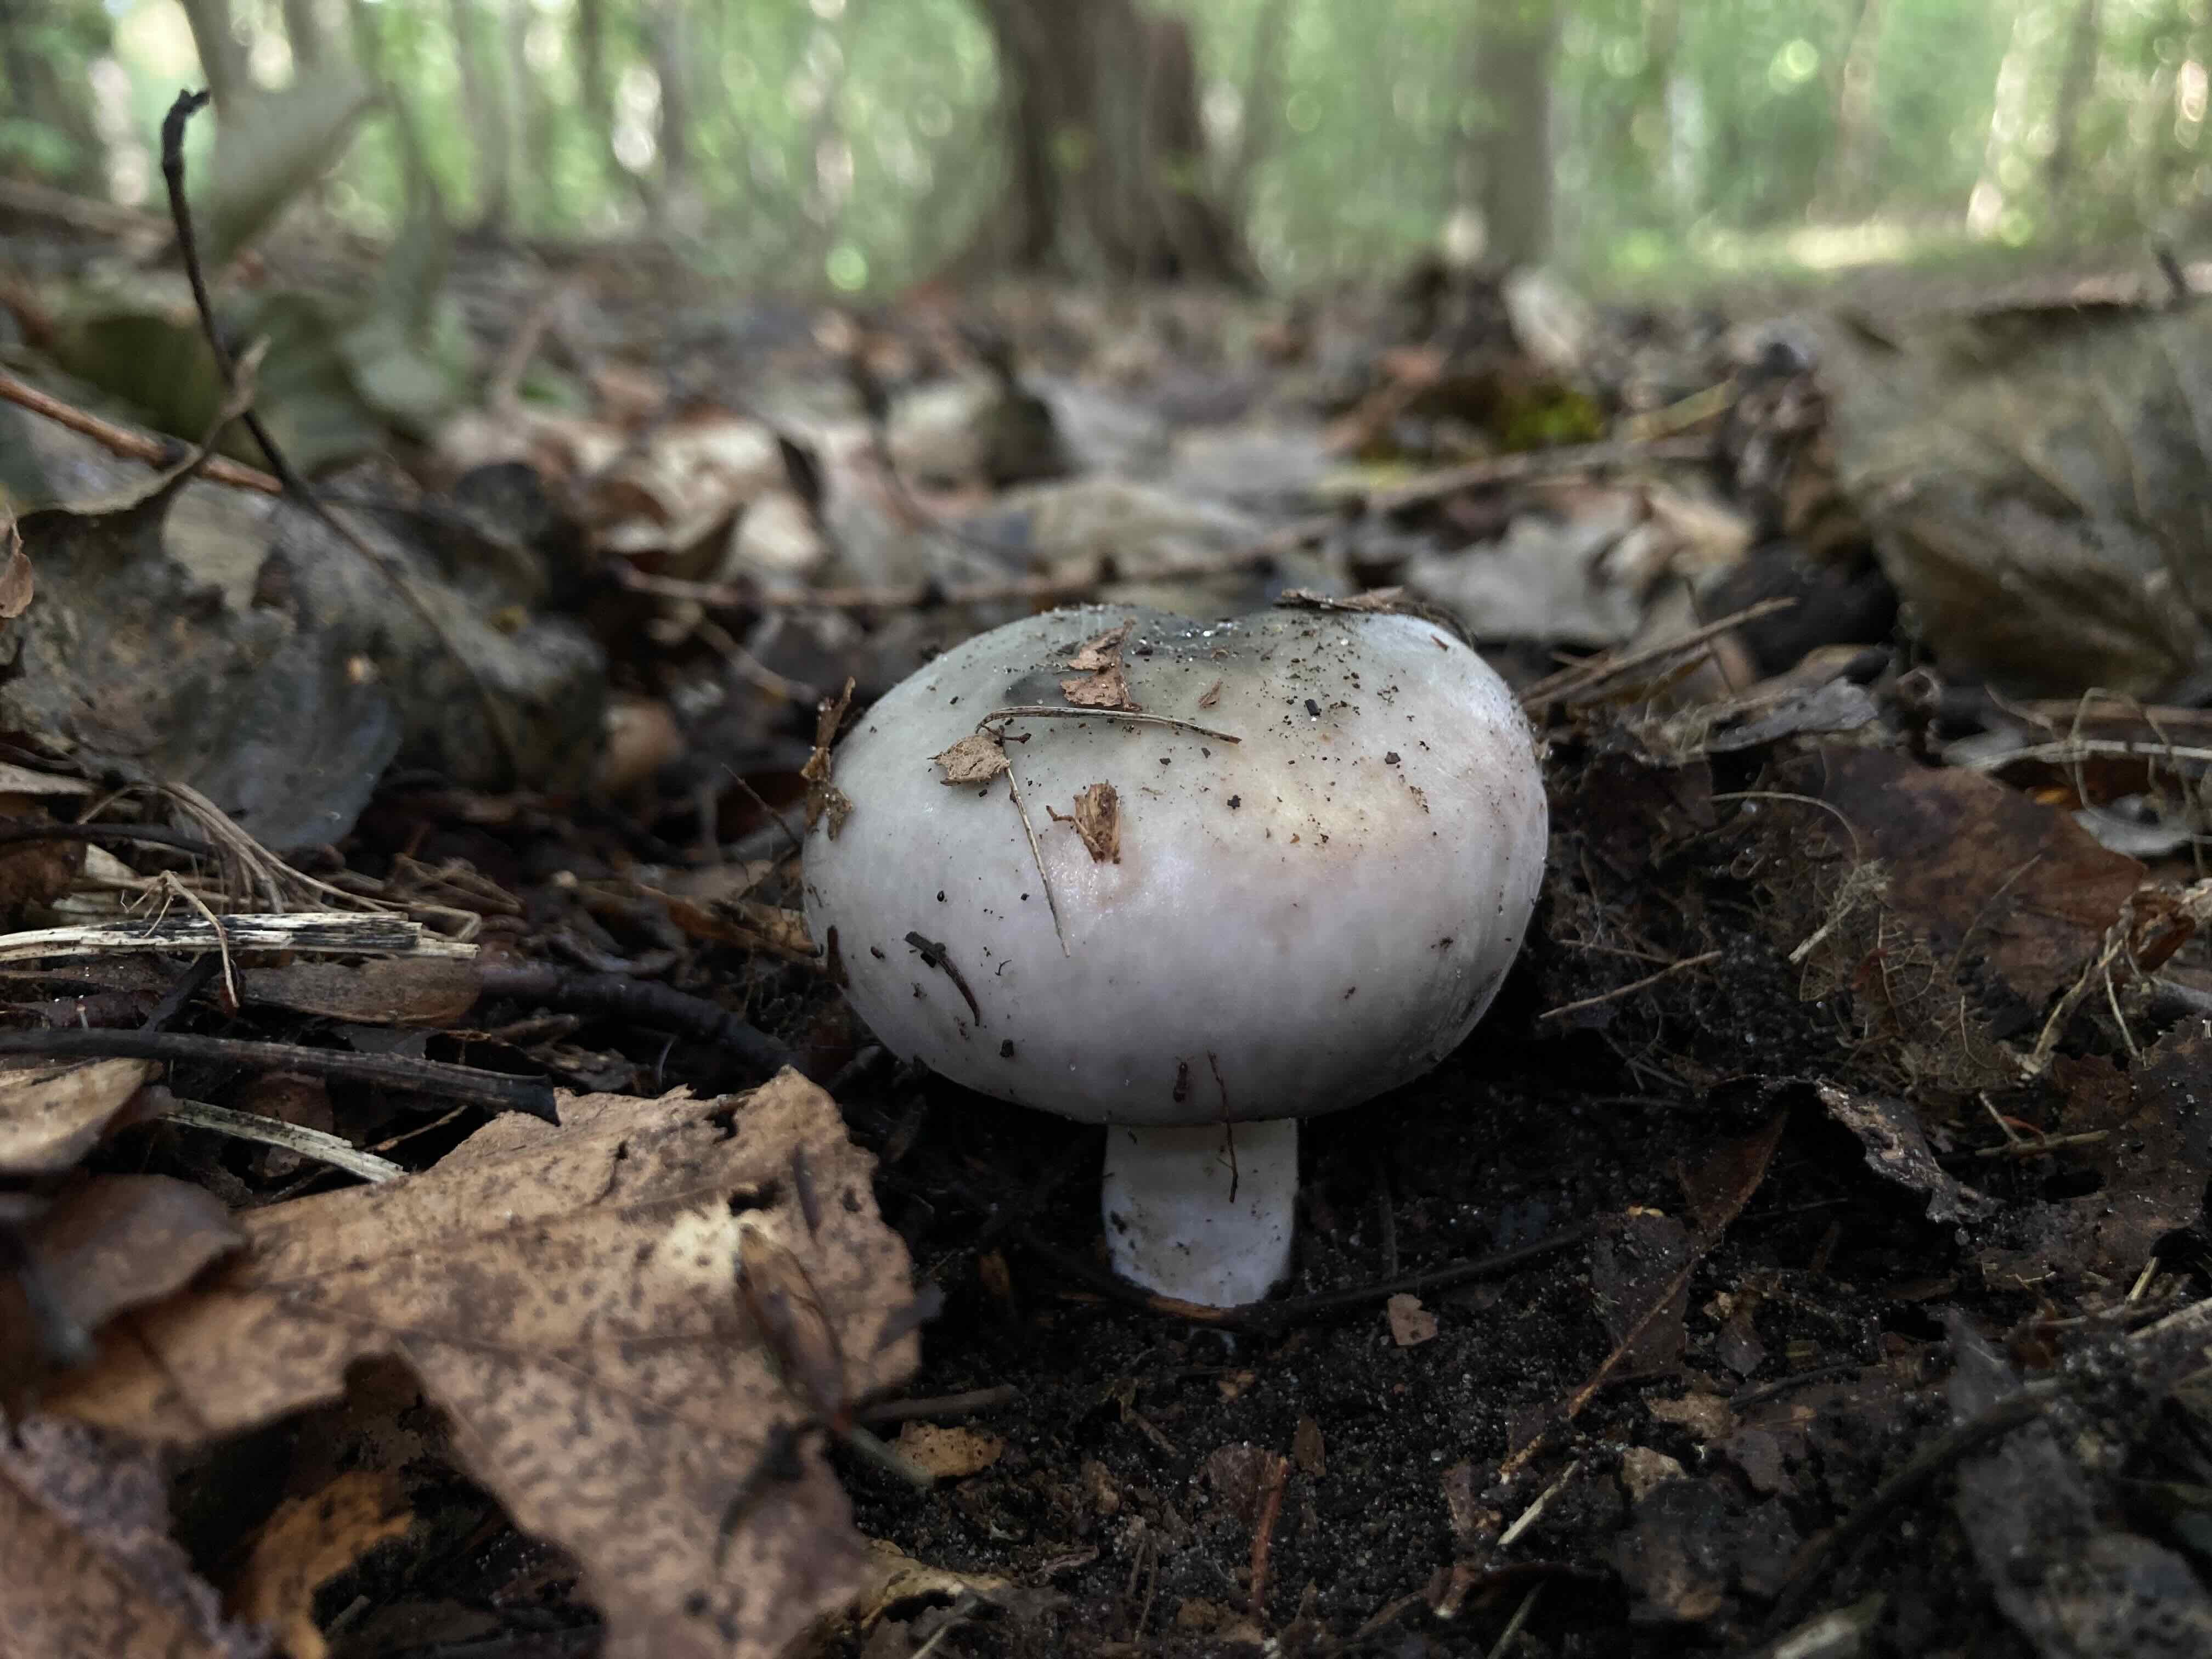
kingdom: Fungi
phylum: Basidiomycota
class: Agaricomycetes
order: Russulales
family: Russulaceae
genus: Russula
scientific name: Russula
